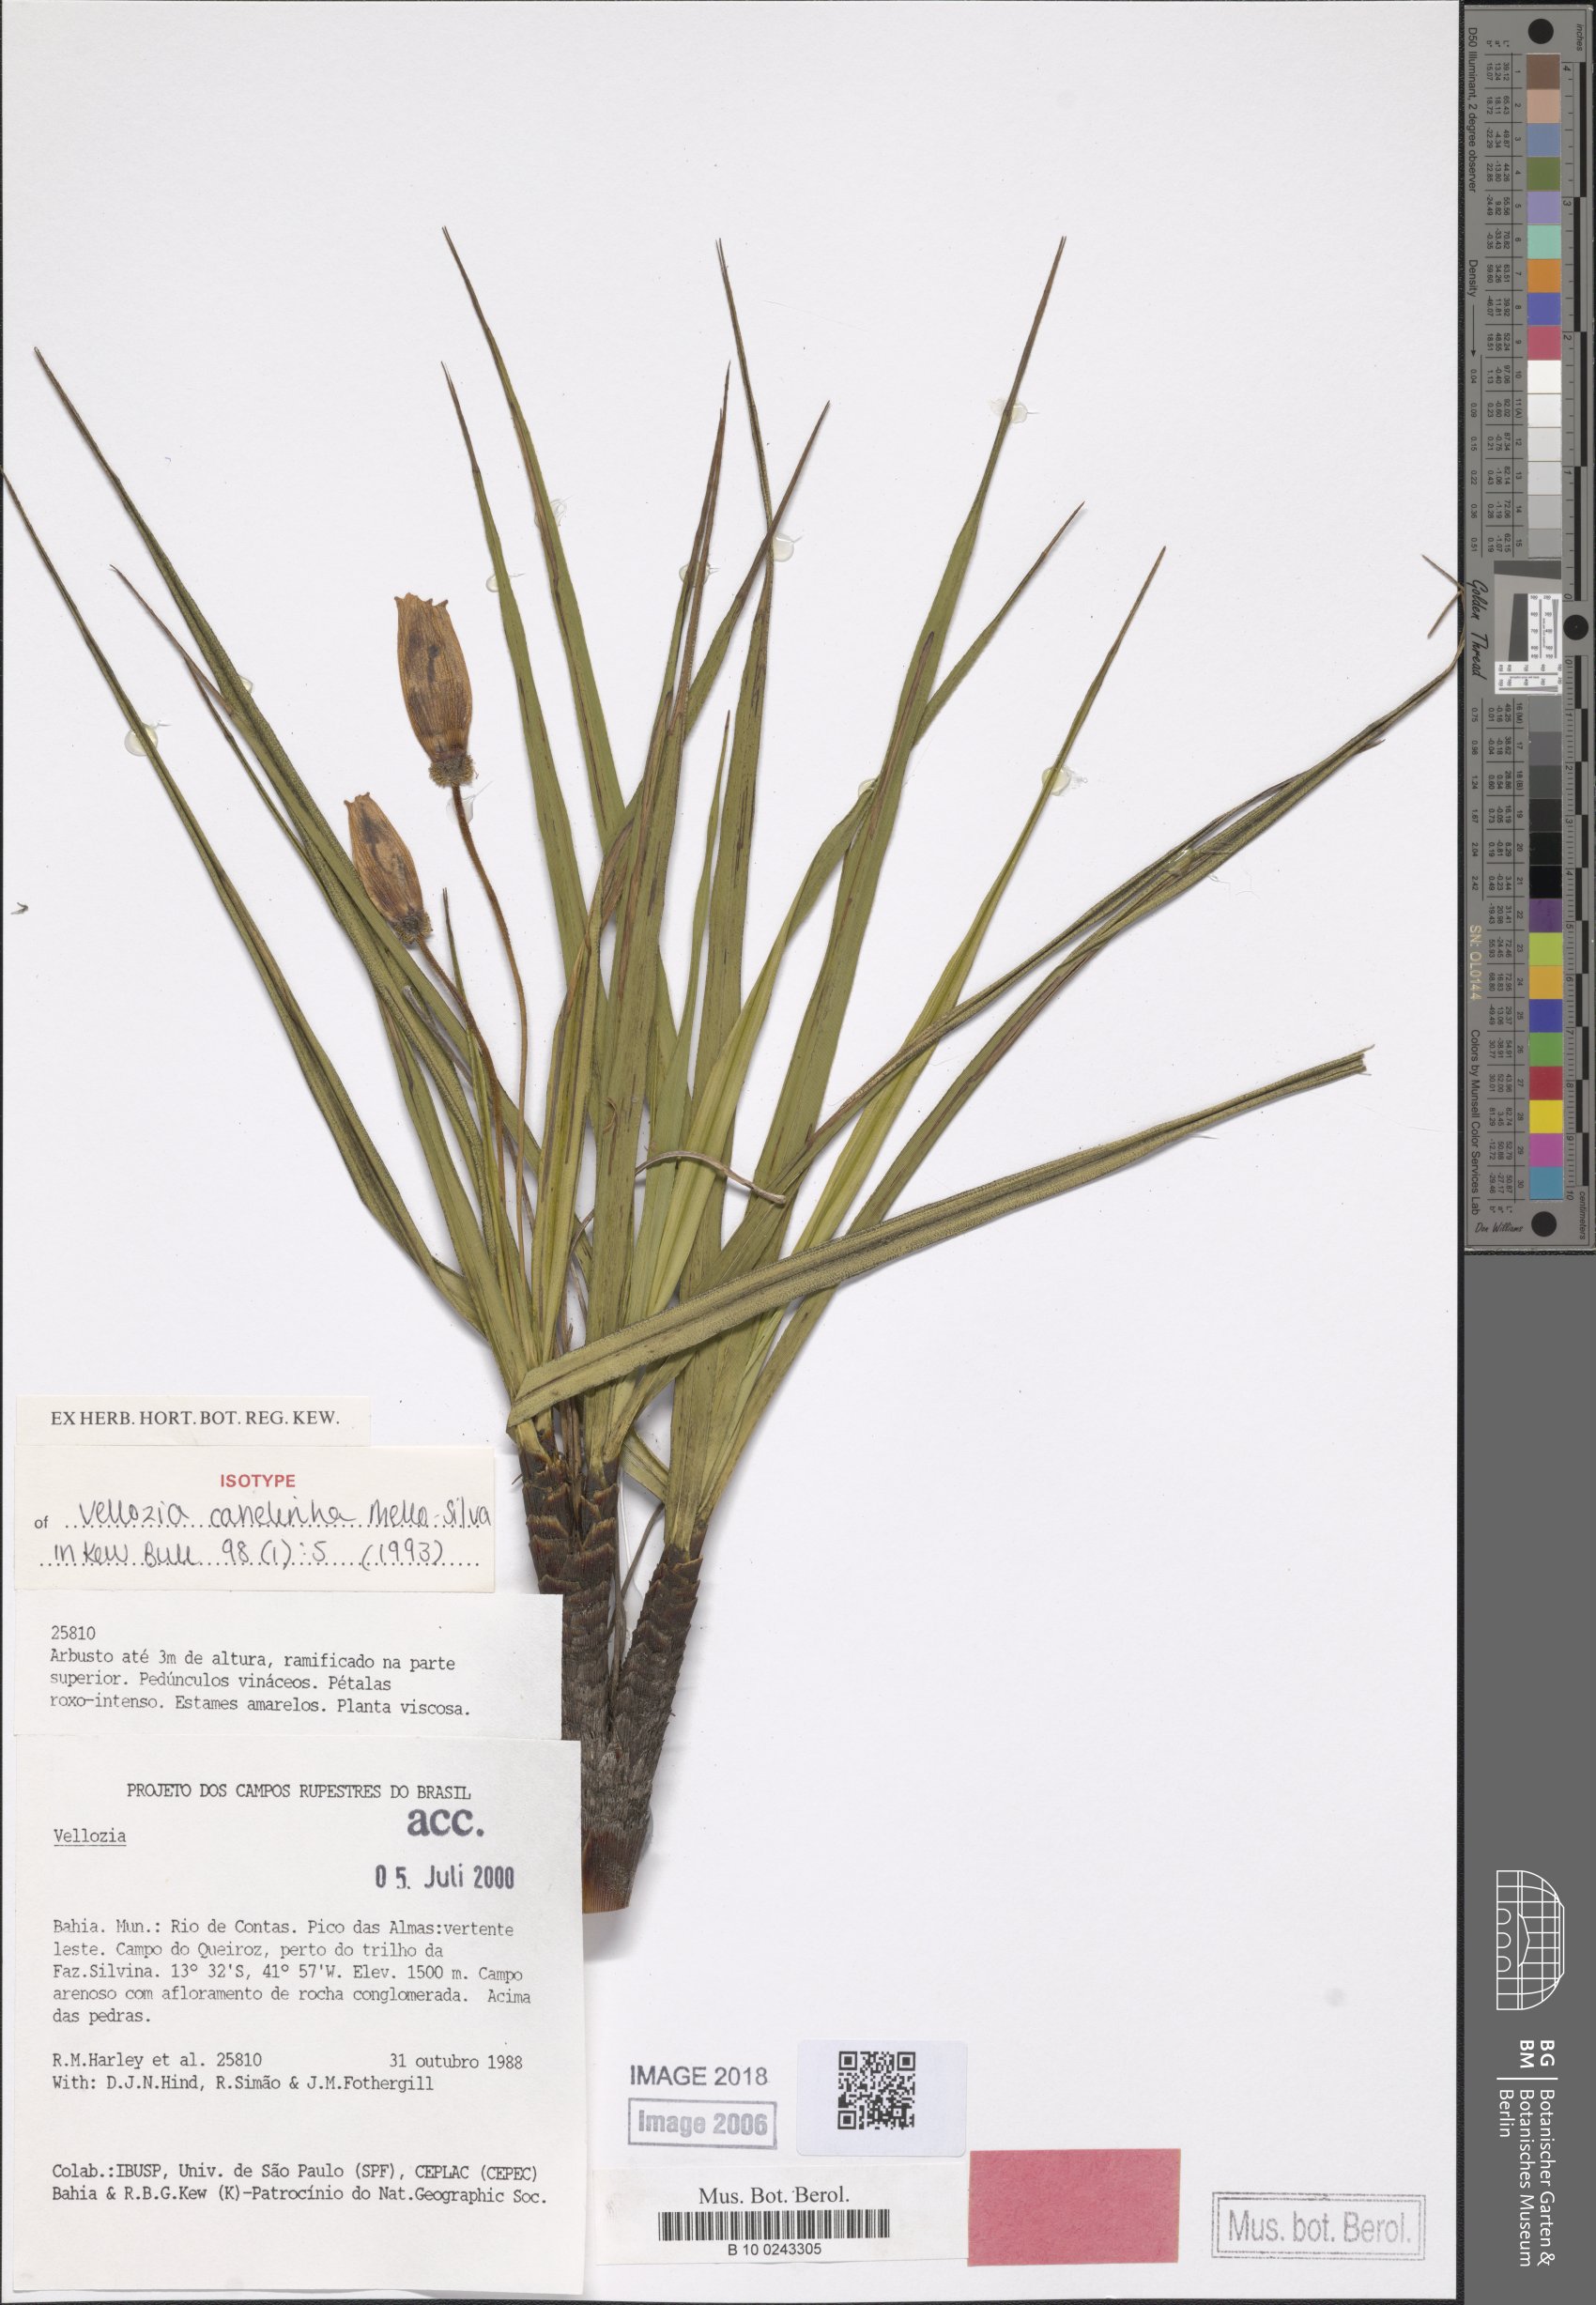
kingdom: Plantae
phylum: Tracheophyta
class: Liliopsida
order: Pandanales
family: Velloziaceae
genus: Vellozia
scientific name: Vellozia canelinha
